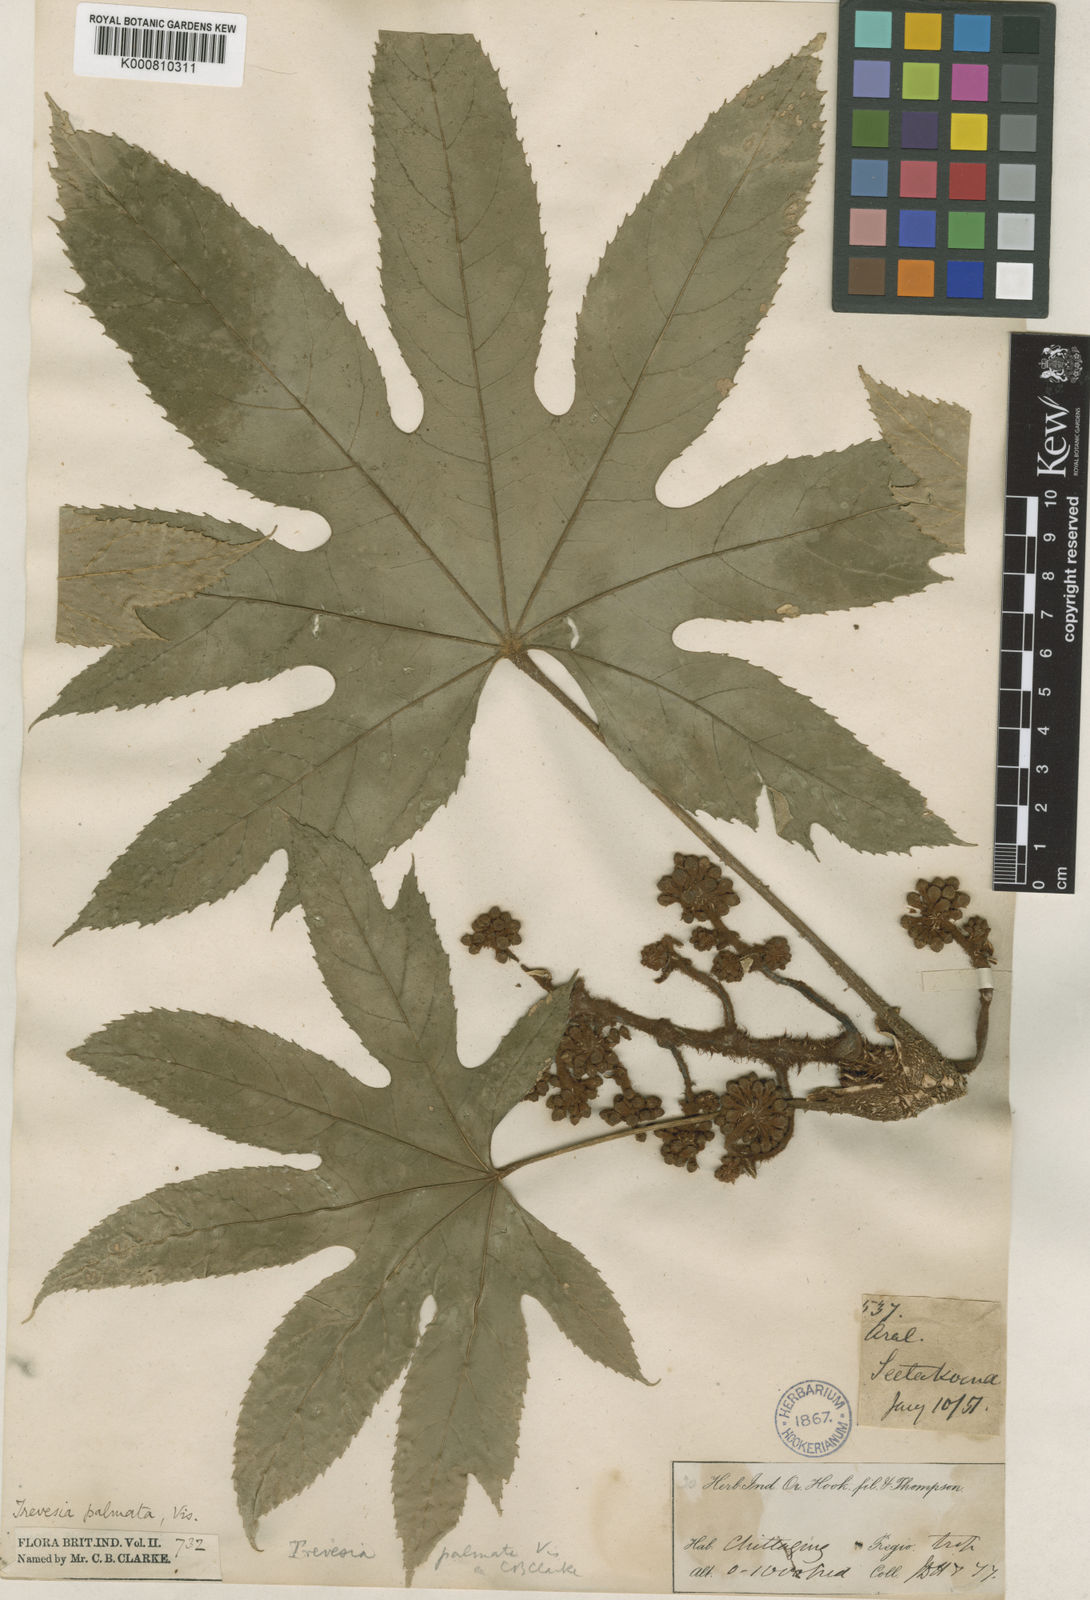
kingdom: Plantae
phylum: Tracheophyta
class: Magnoliopsida
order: Apiales
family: Araliaceae
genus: Trevesia
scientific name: Trevesia palmata
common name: Snowflakeplant
